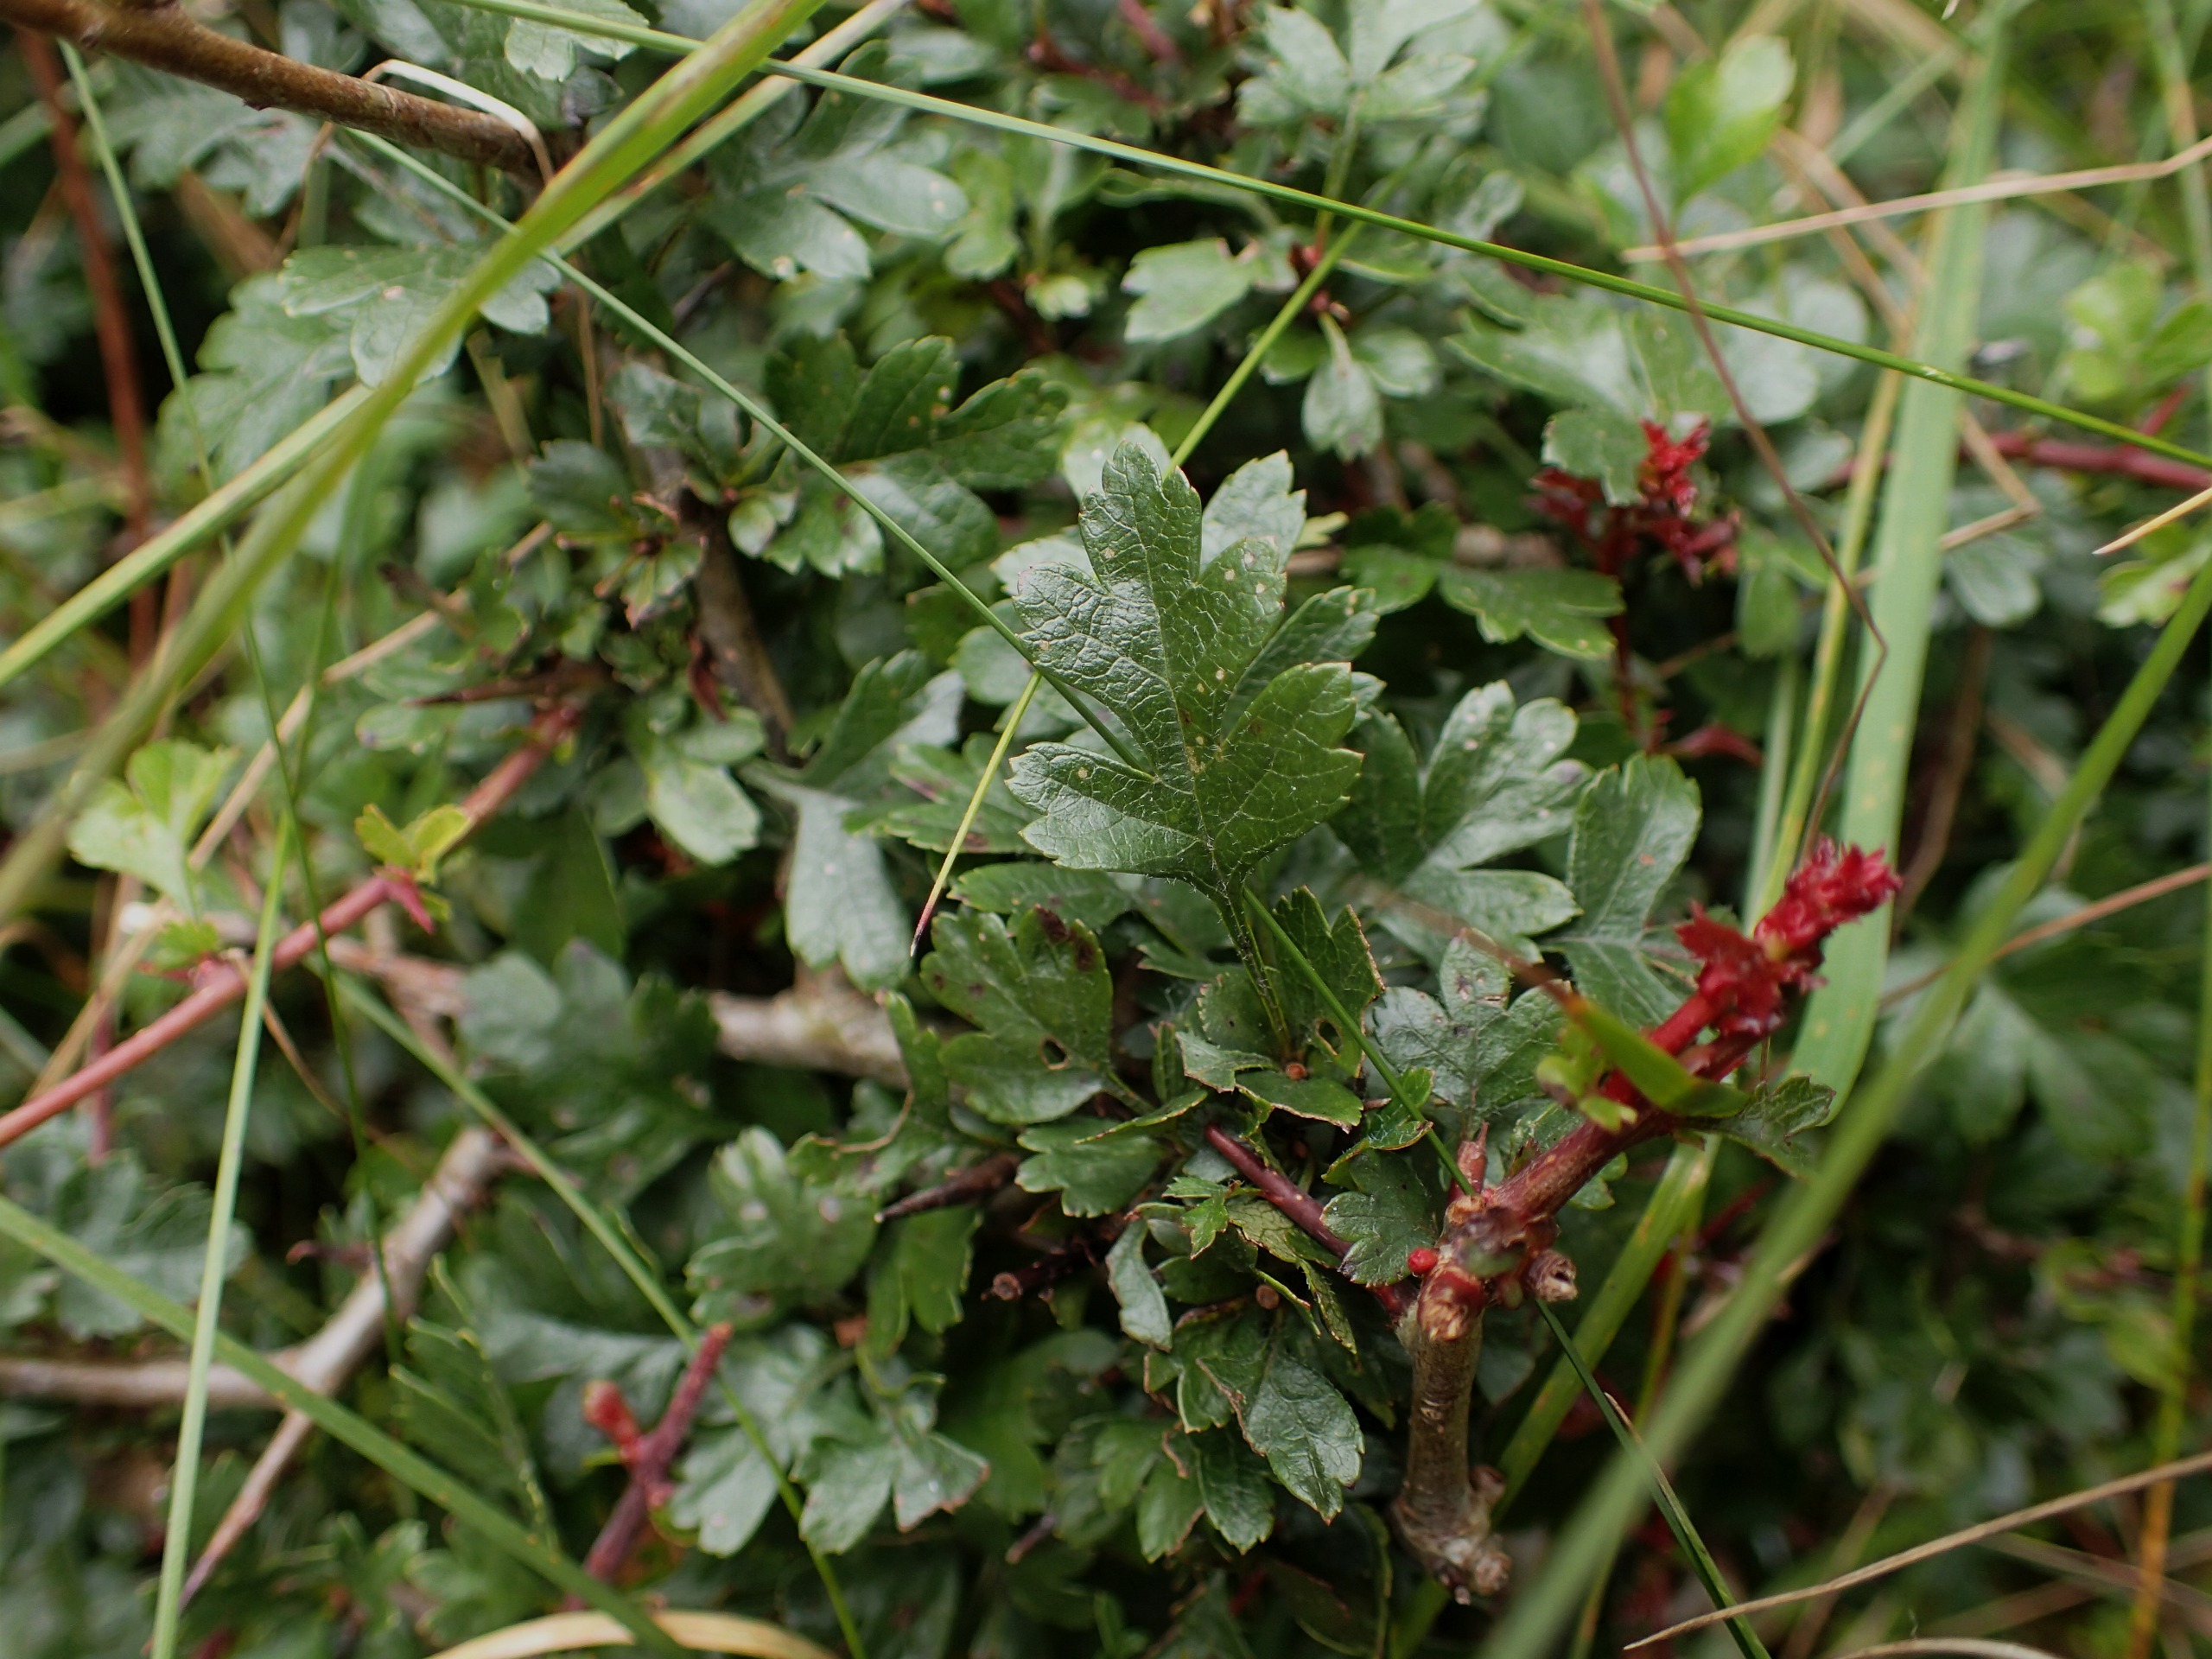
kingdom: Plantae
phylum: Tracheophyta
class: Magnoliopsida
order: Rosales
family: Rosaceae
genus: Crataegus
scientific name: Crataegus monogyna
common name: Engriflet hvidtjørn
